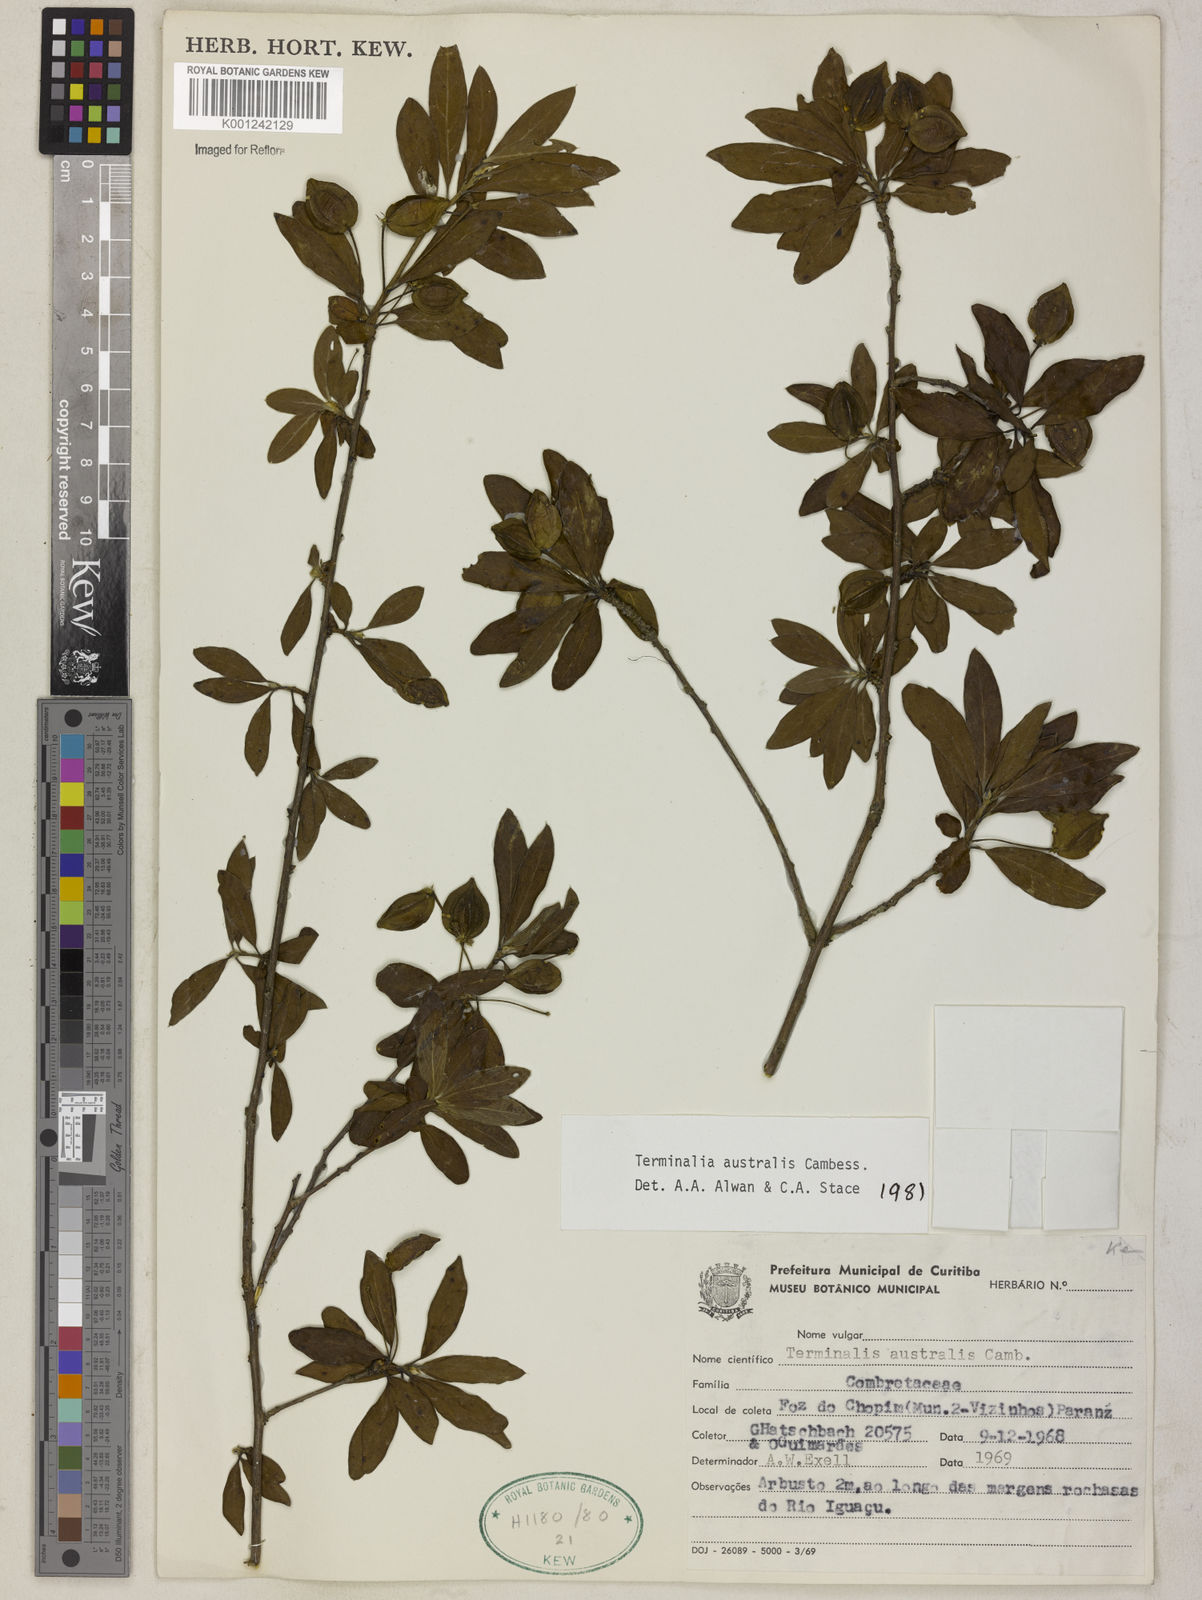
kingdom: Plantae
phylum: Tracheophyta
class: Magnoliopsida
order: Myrtales
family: Combretaceae
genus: Terminalia
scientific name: Terminalia australis
